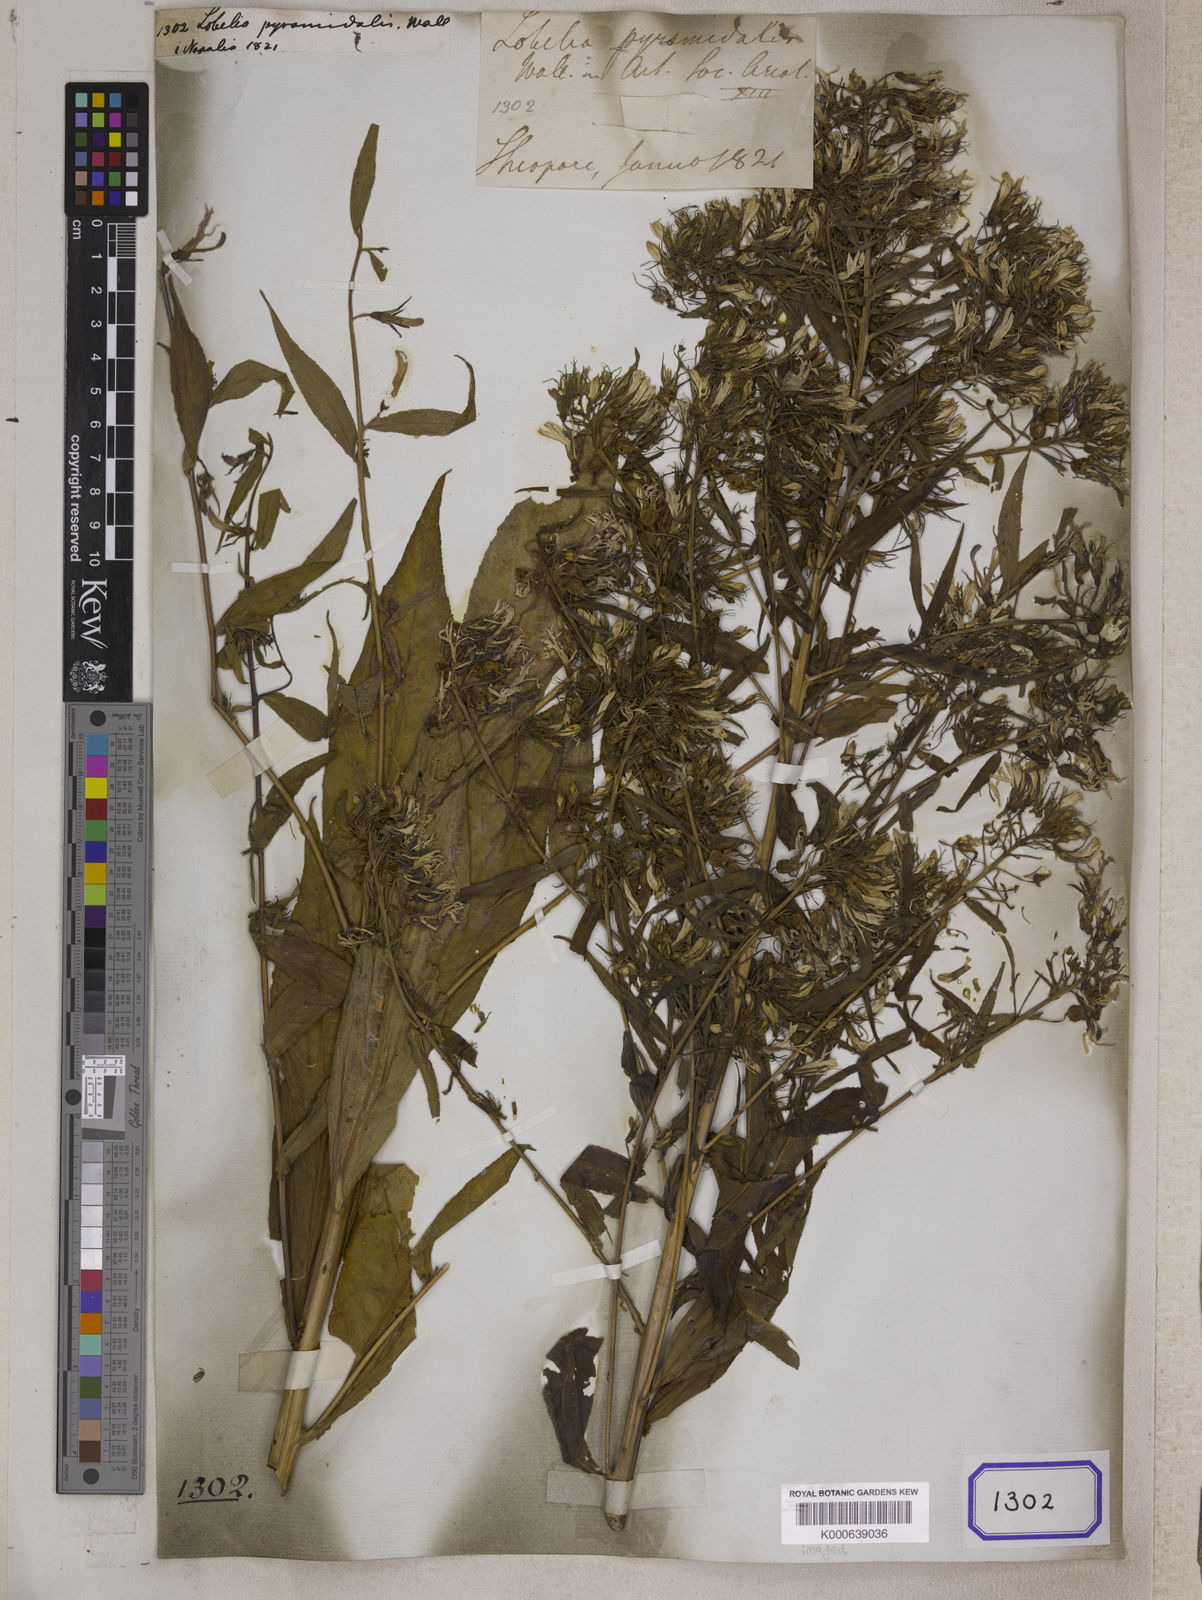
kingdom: Plantae
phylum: Tracheophyta
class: Magnoliopsida
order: Asterales
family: Campanulaceae
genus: Lobelia
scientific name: Lobelia pyramidalis
